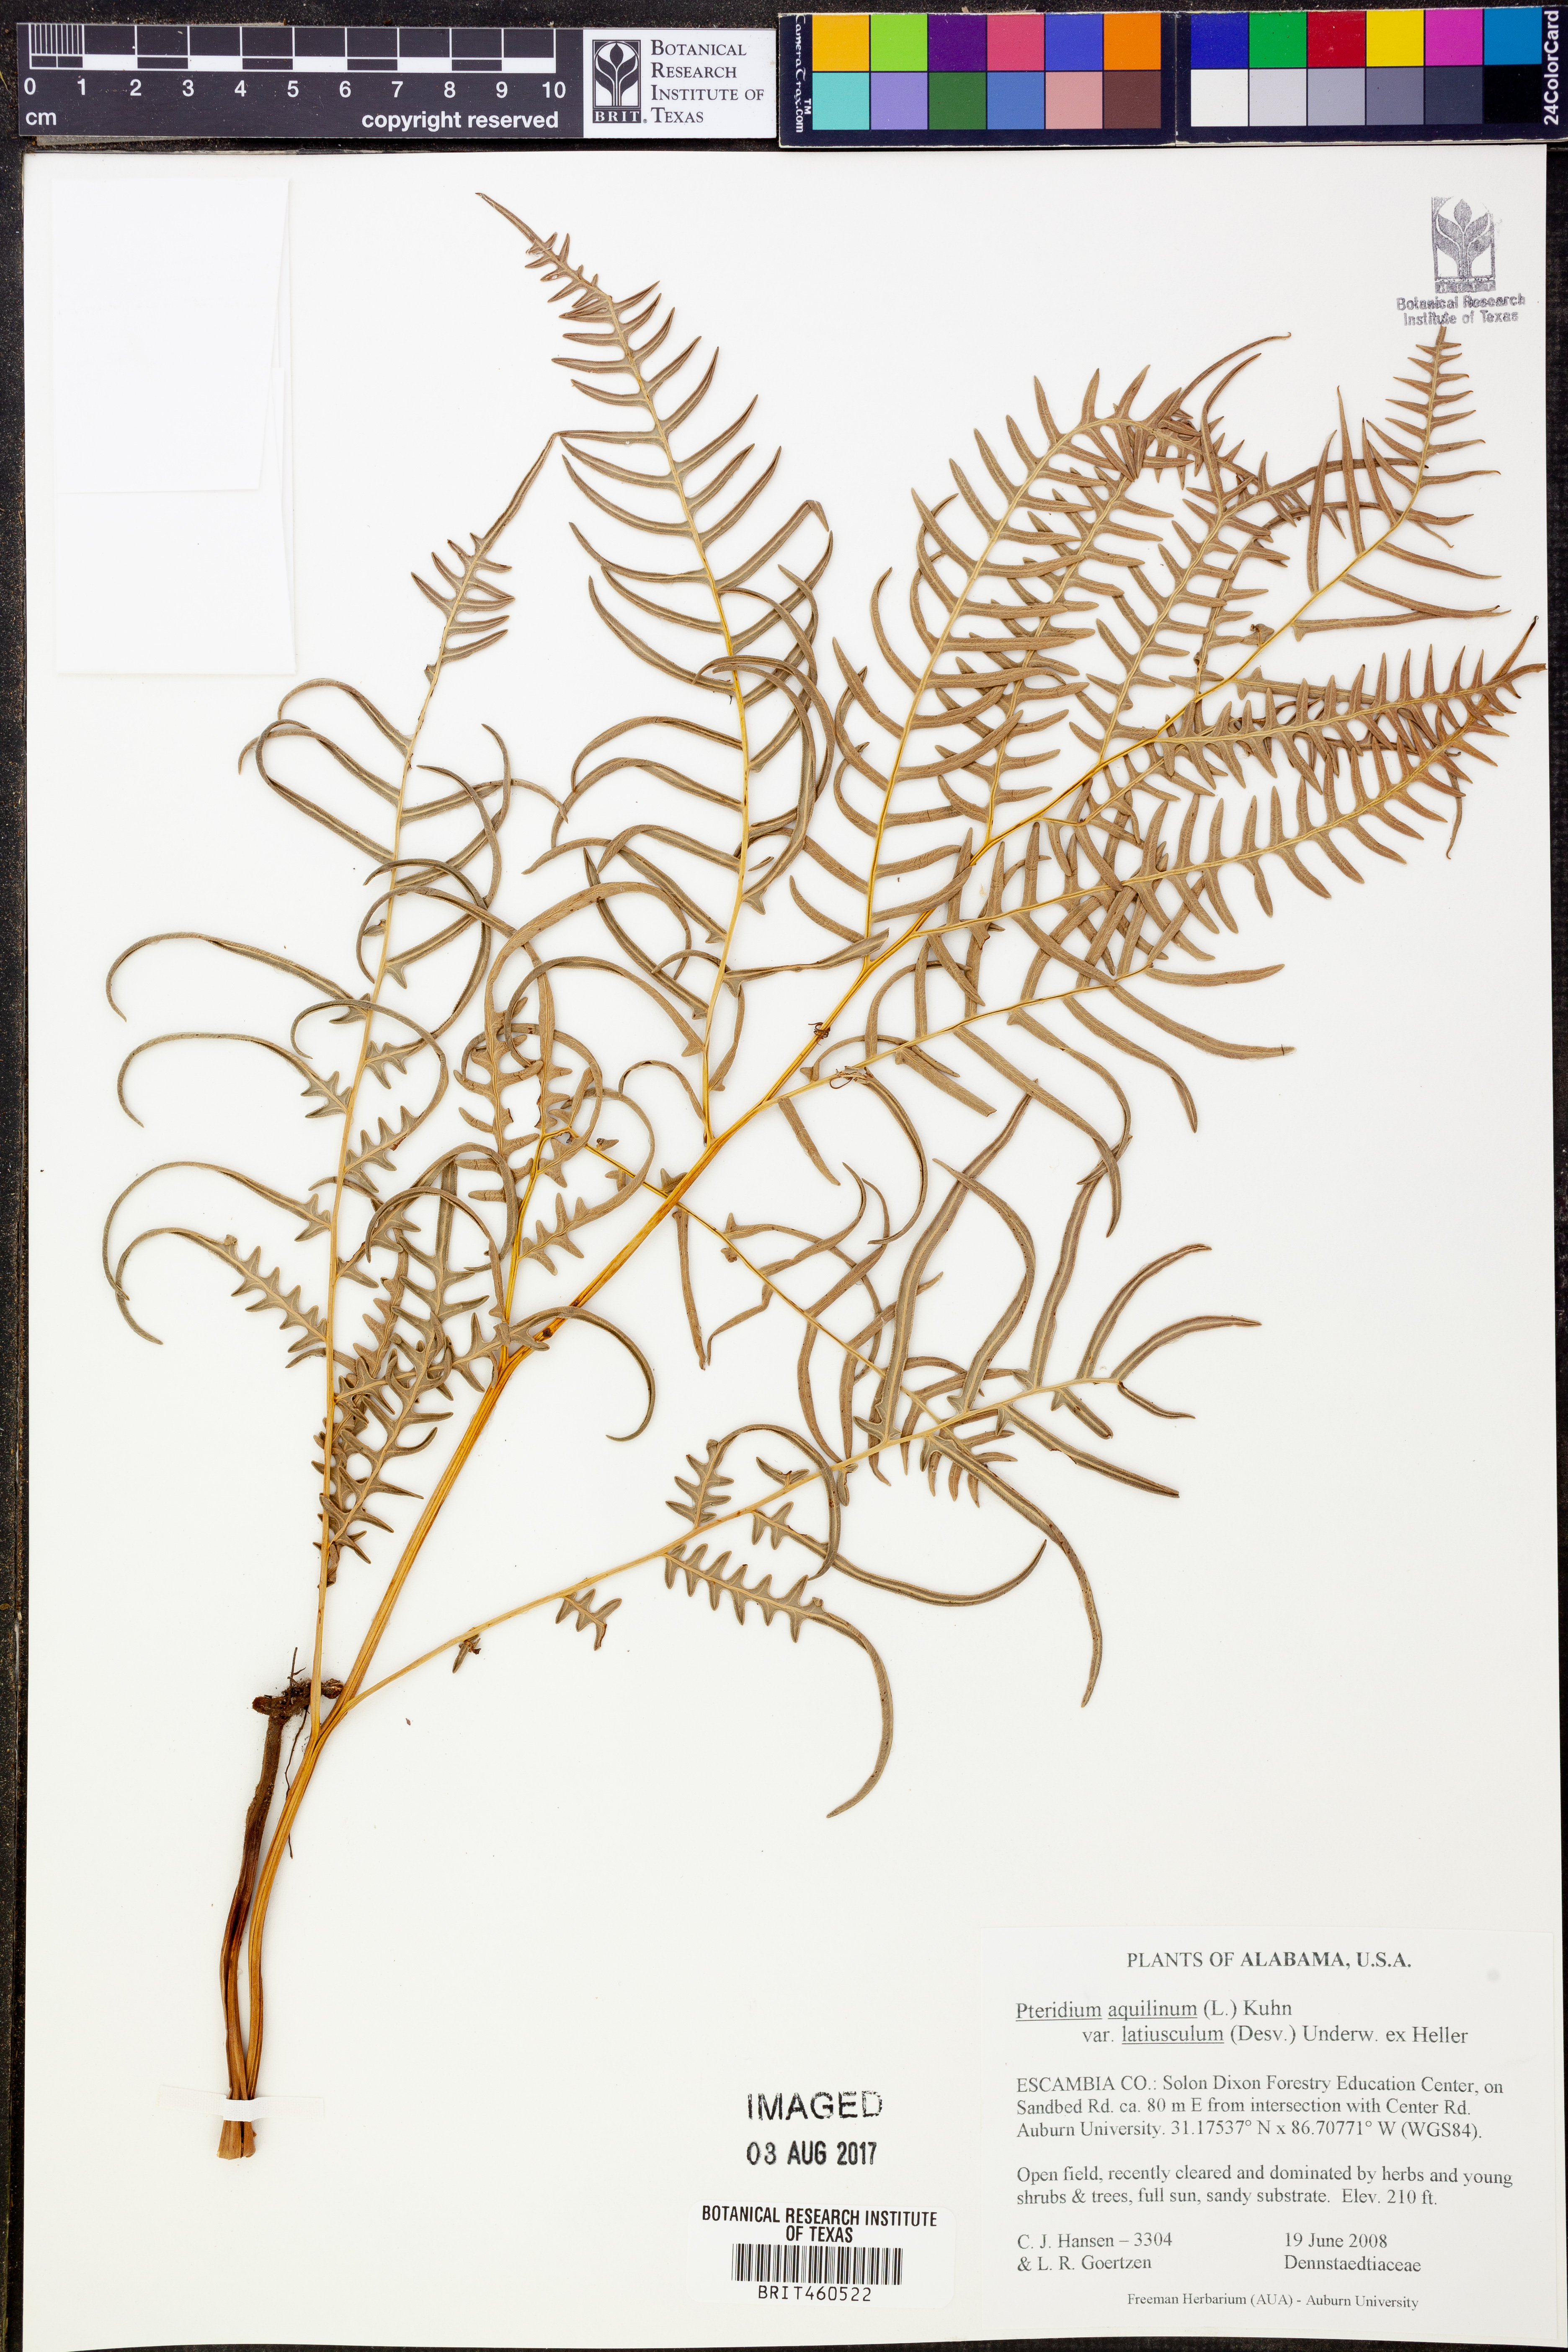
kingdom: Plantae
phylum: Tracheophyta
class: Polypodiopsida
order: Polypodiales
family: Dennstaedtiaceae
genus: Pteridium
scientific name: Pteridium aquilinum
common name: Bracken
